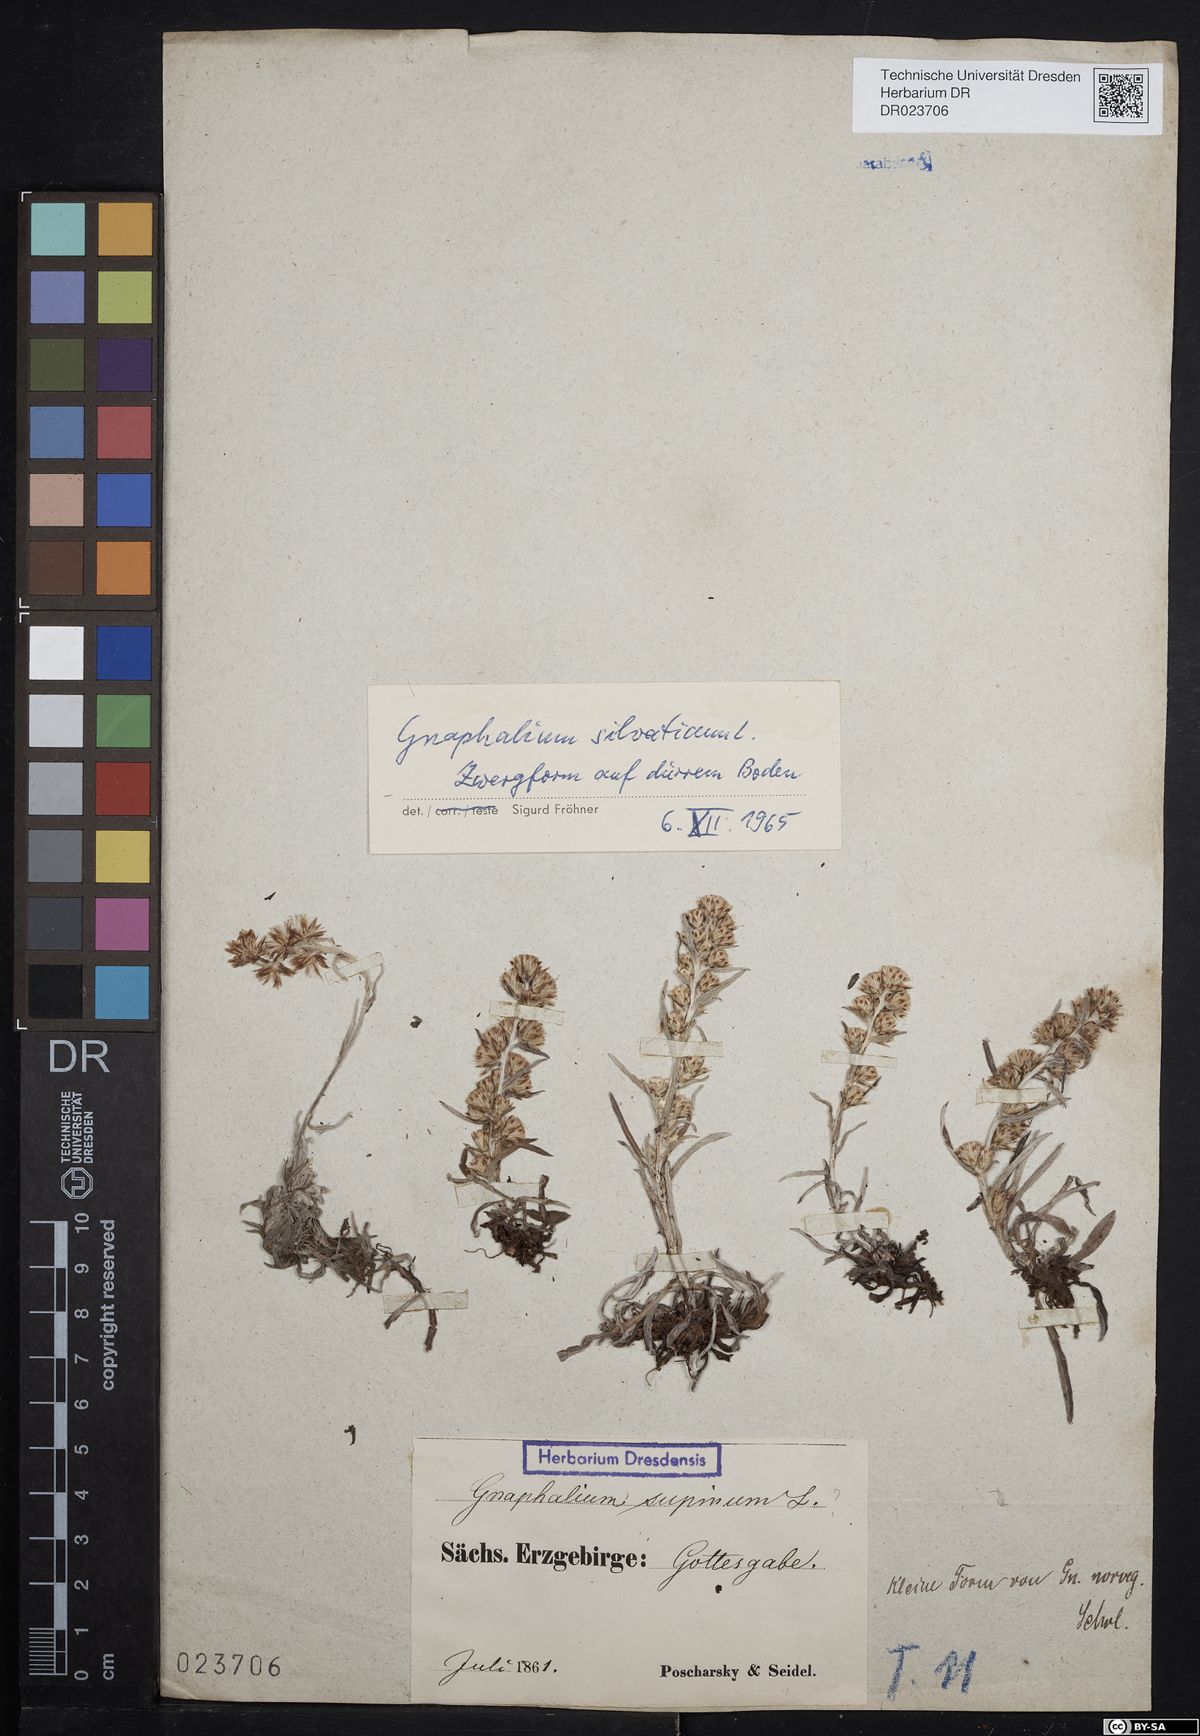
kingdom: Plantae
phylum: Tracheophyta
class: Magnoliopsida
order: Asterales
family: Asteraceae
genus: Omalotheca
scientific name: Omalotheca sylvatica
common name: Heath cudweed
